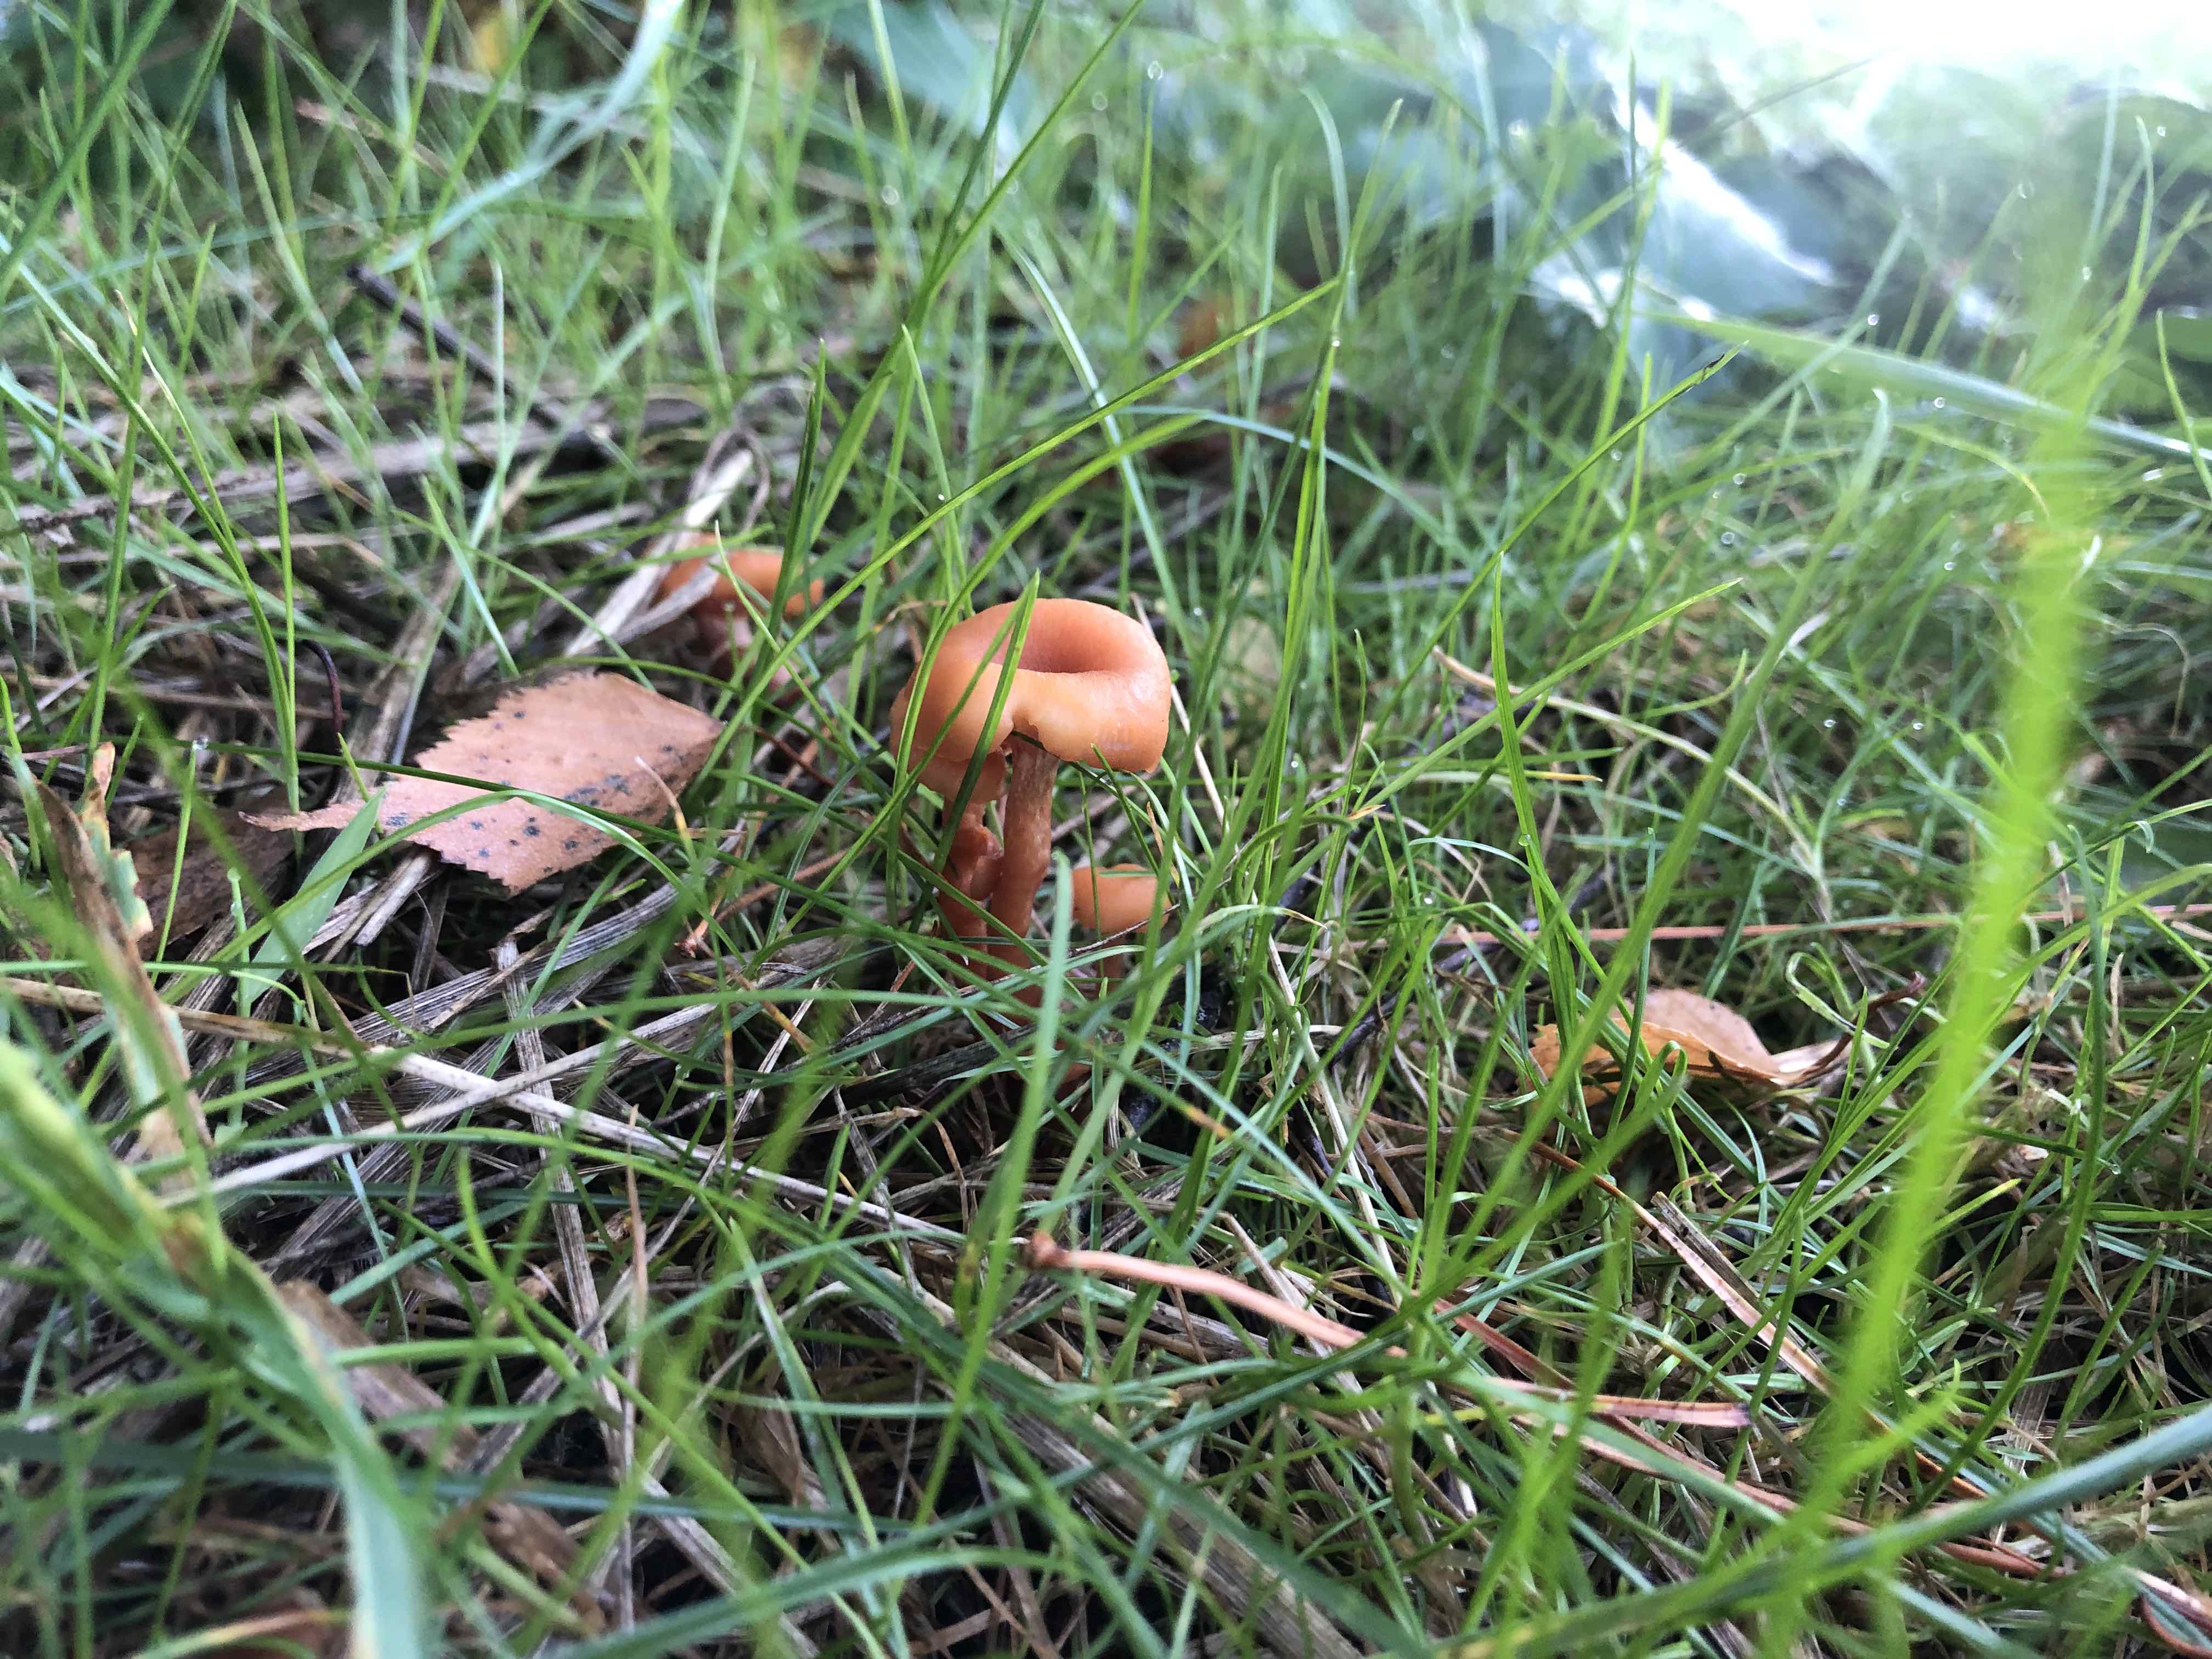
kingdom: Fungi
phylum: Basidiomycota
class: Agaricomycetes
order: Agaricales
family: Hydnangiaceae
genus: Laccaria
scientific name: Laccaria laccata
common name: rød ametysthat
